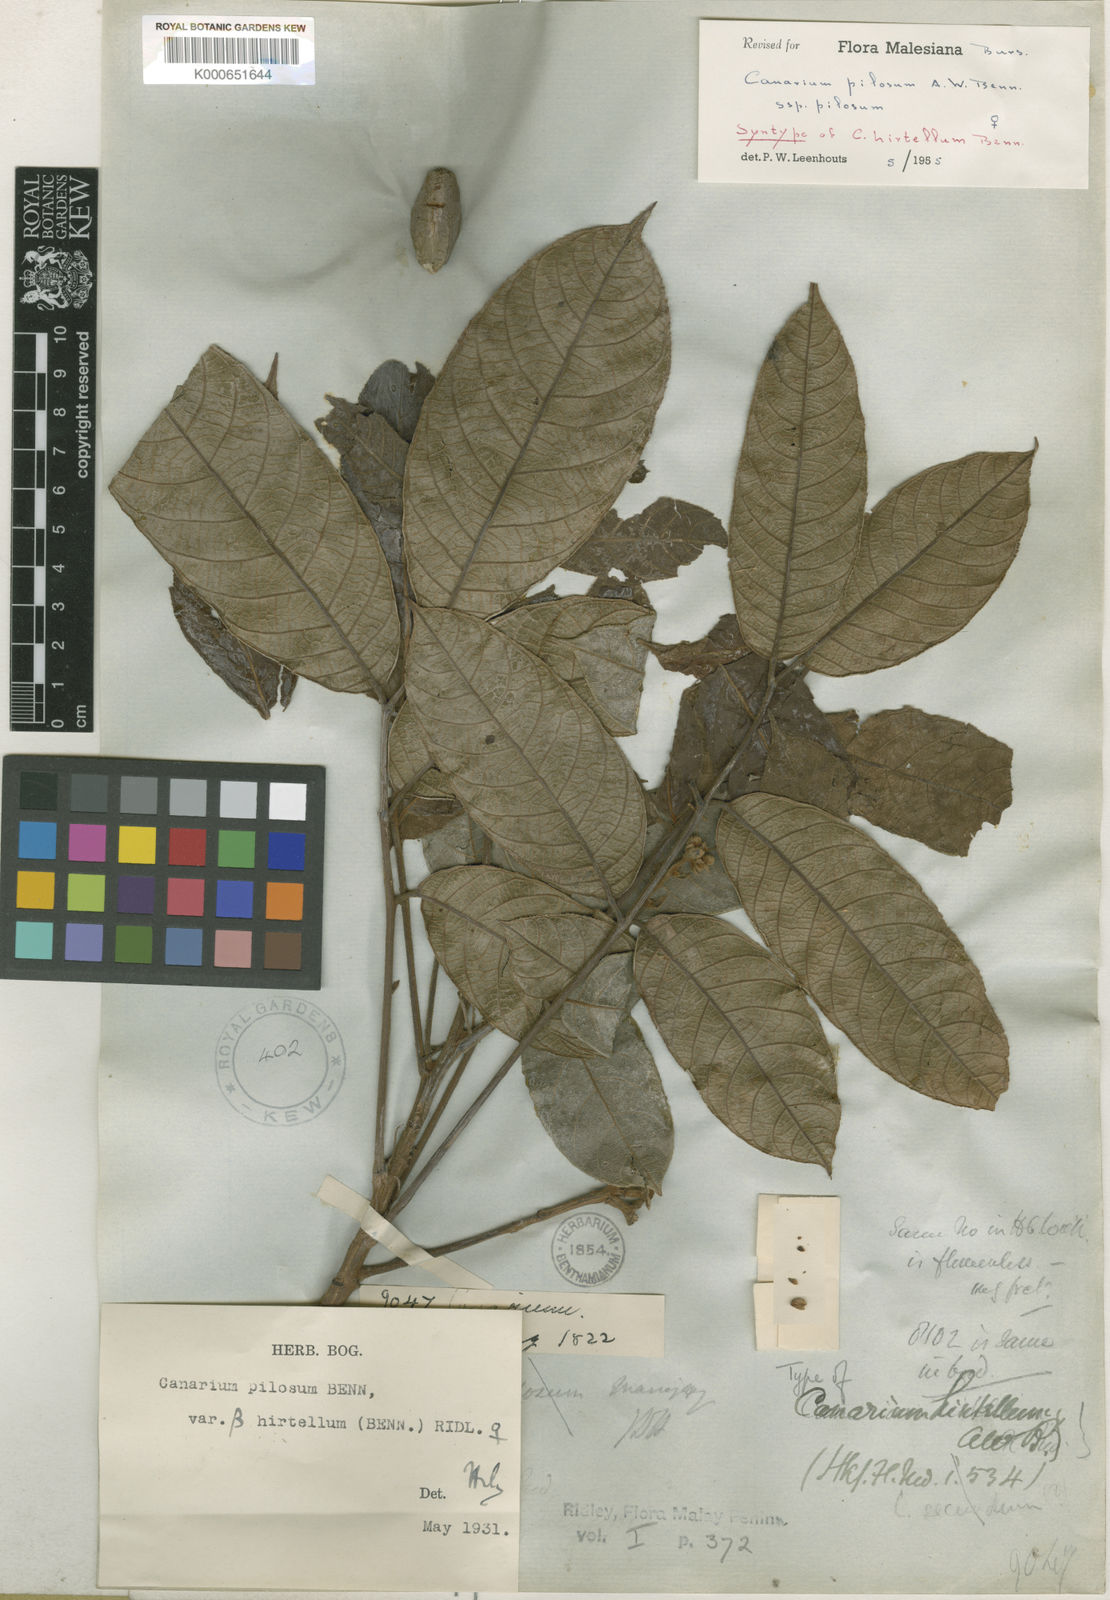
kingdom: Plantae
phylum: Tracheophyta
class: Magnoliopsida
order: Sapindales
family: Burseraceae
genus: Canarium
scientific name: Canarium pilosum
